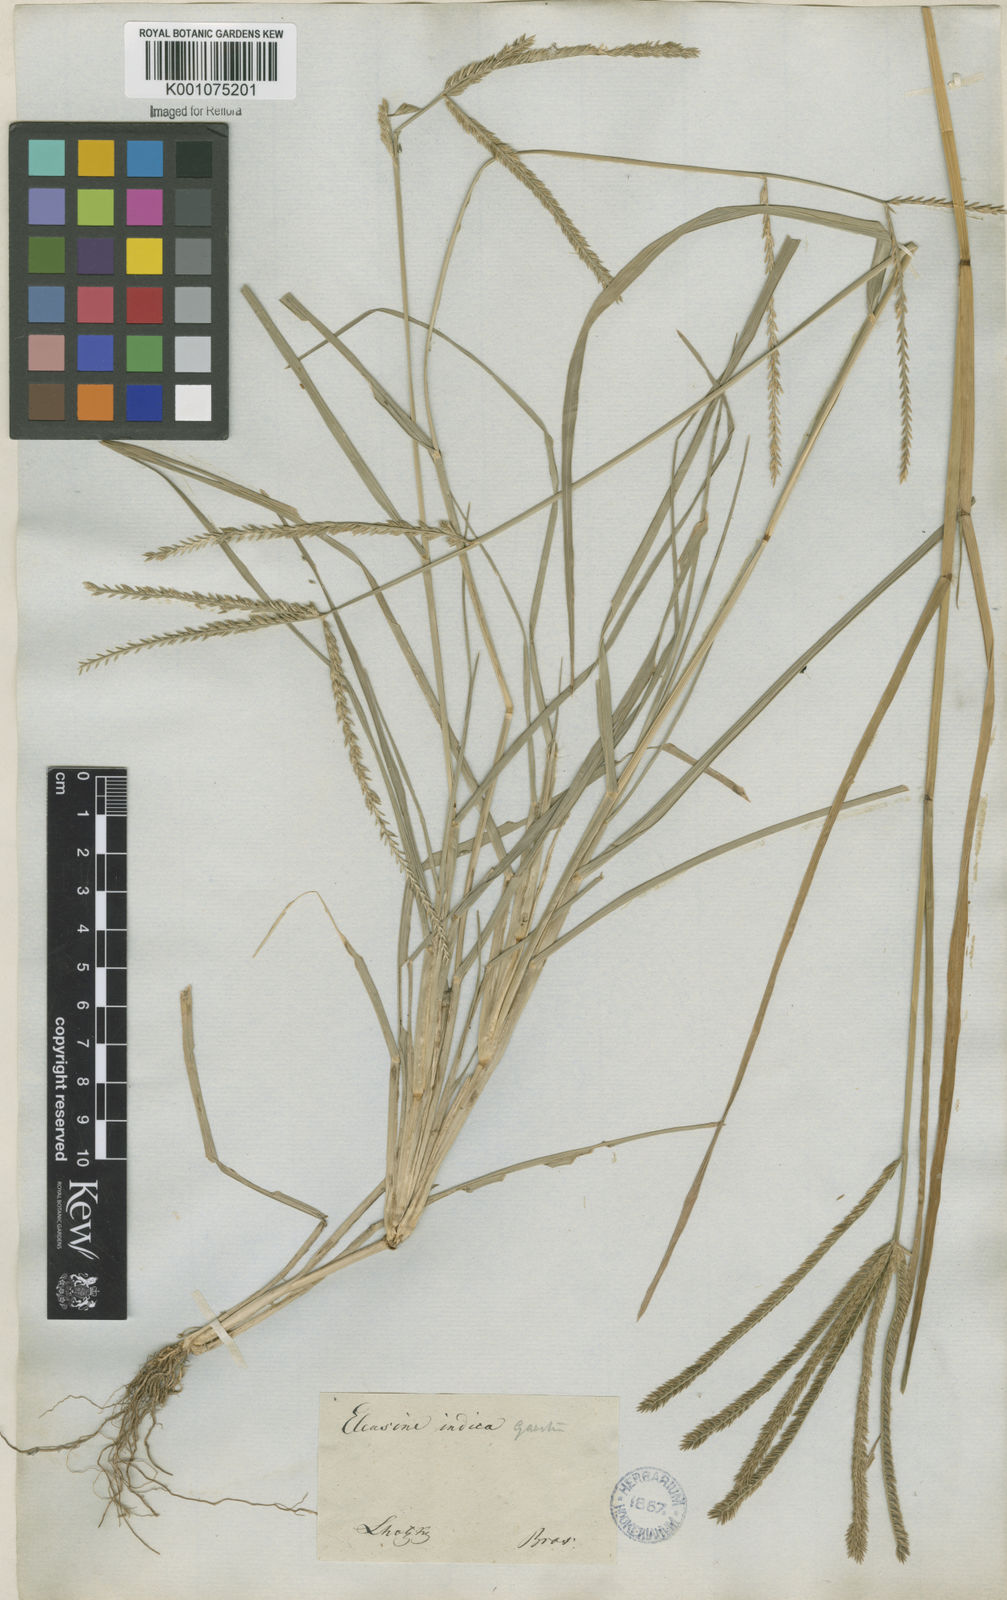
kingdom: Plantae
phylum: Tracheophyta
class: Liliopsida
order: Poales
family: Poaceae
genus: Eleusine
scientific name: Eleusine indica
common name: Yard-grass
